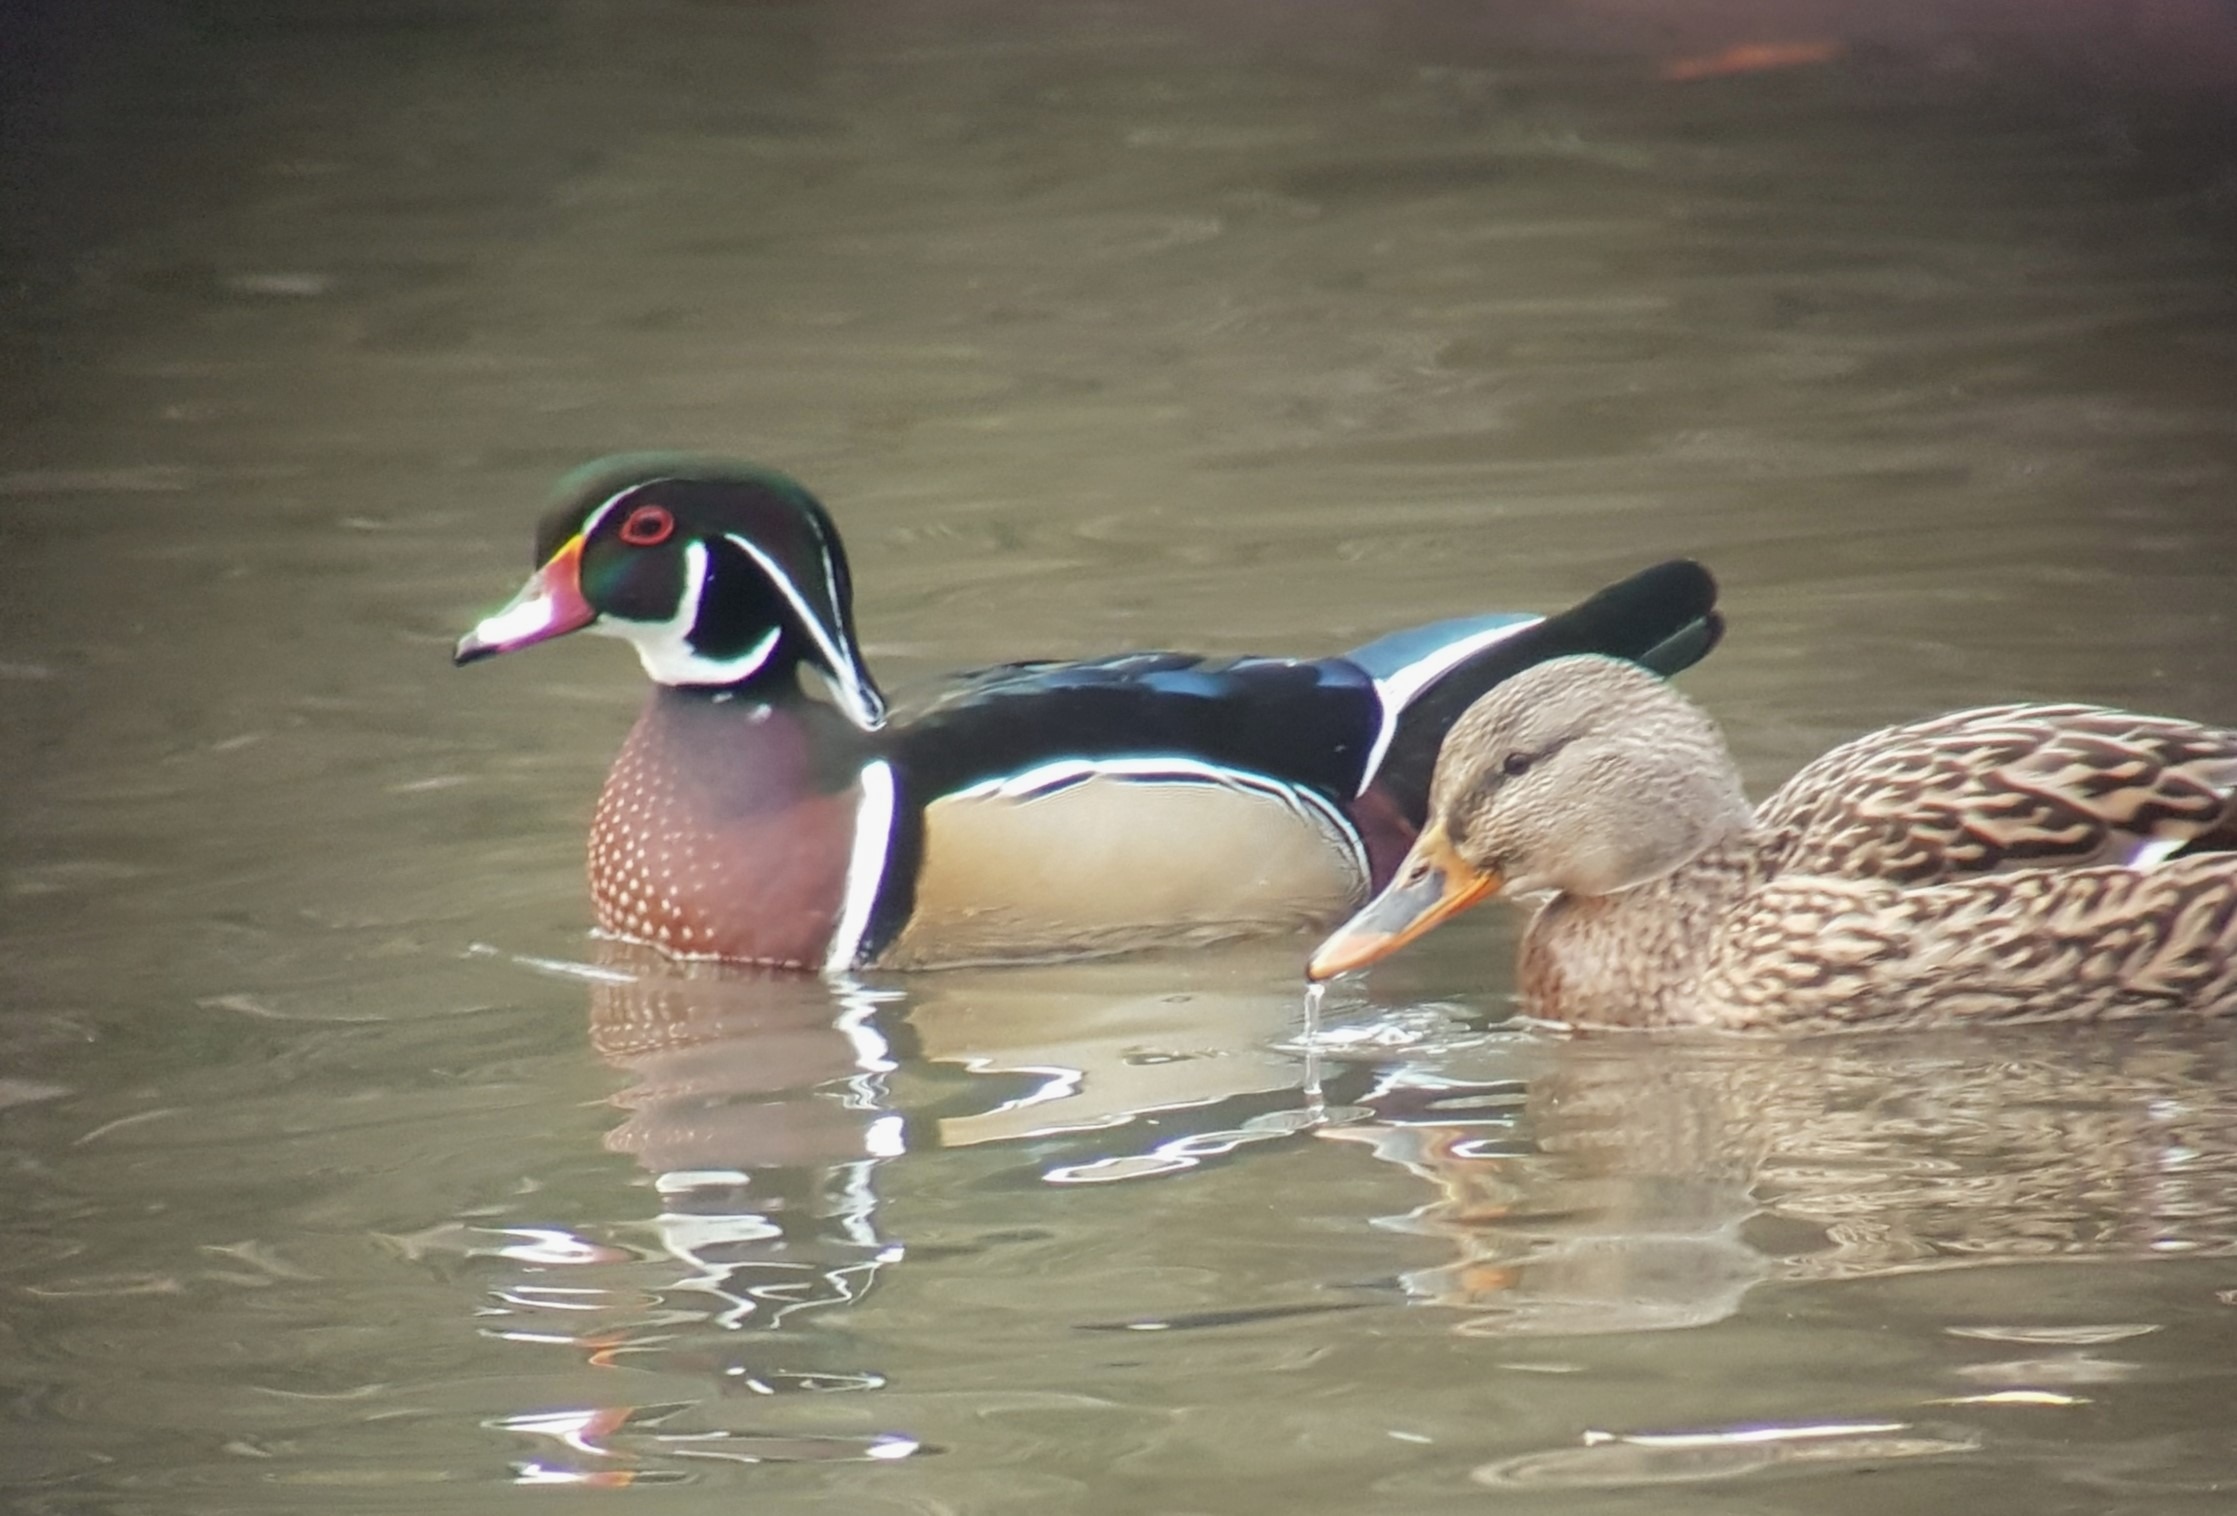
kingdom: Animalia
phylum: Chordata
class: Aves
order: Anseriformes
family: Anatidae
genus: Aix
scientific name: Aix sponsa
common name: Brudeand
